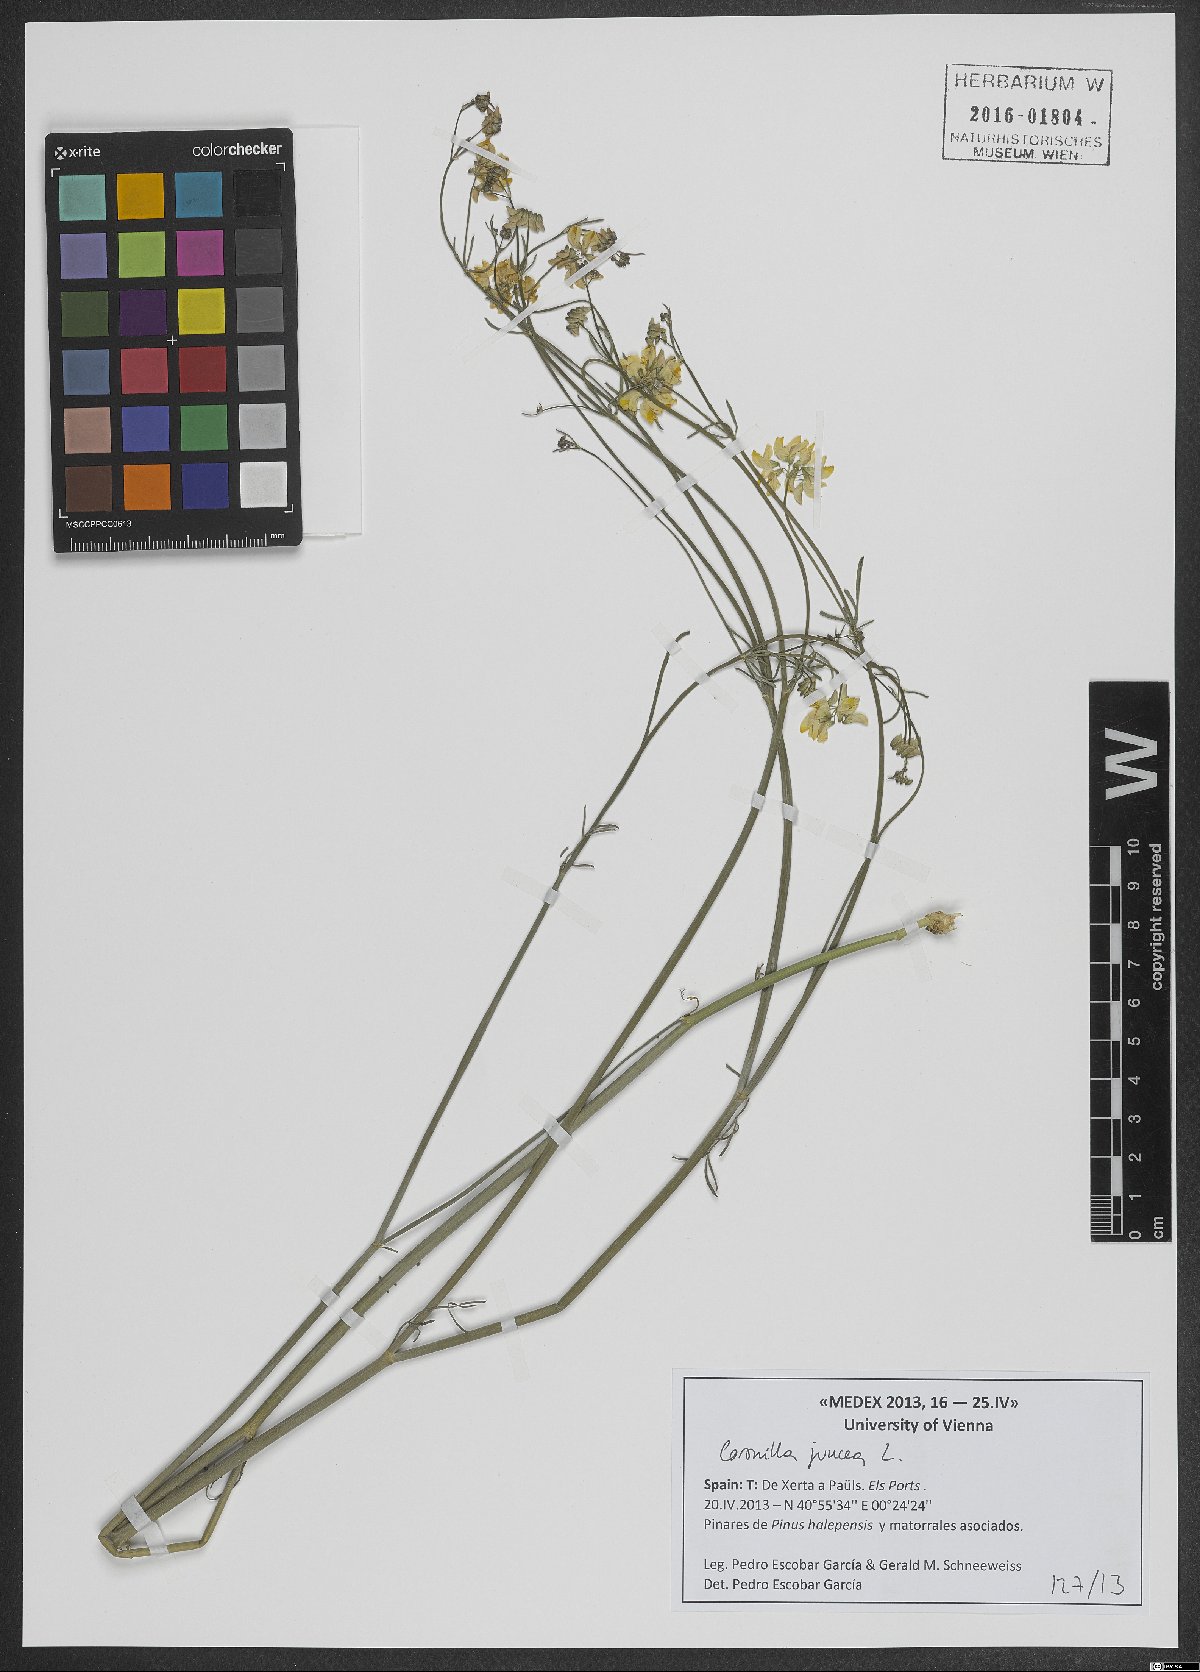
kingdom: Plantae
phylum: Tracheophyta
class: Magnoliopsida
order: Fabales
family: Fabaceae
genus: Coronilla
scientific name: Coronilla juncea
